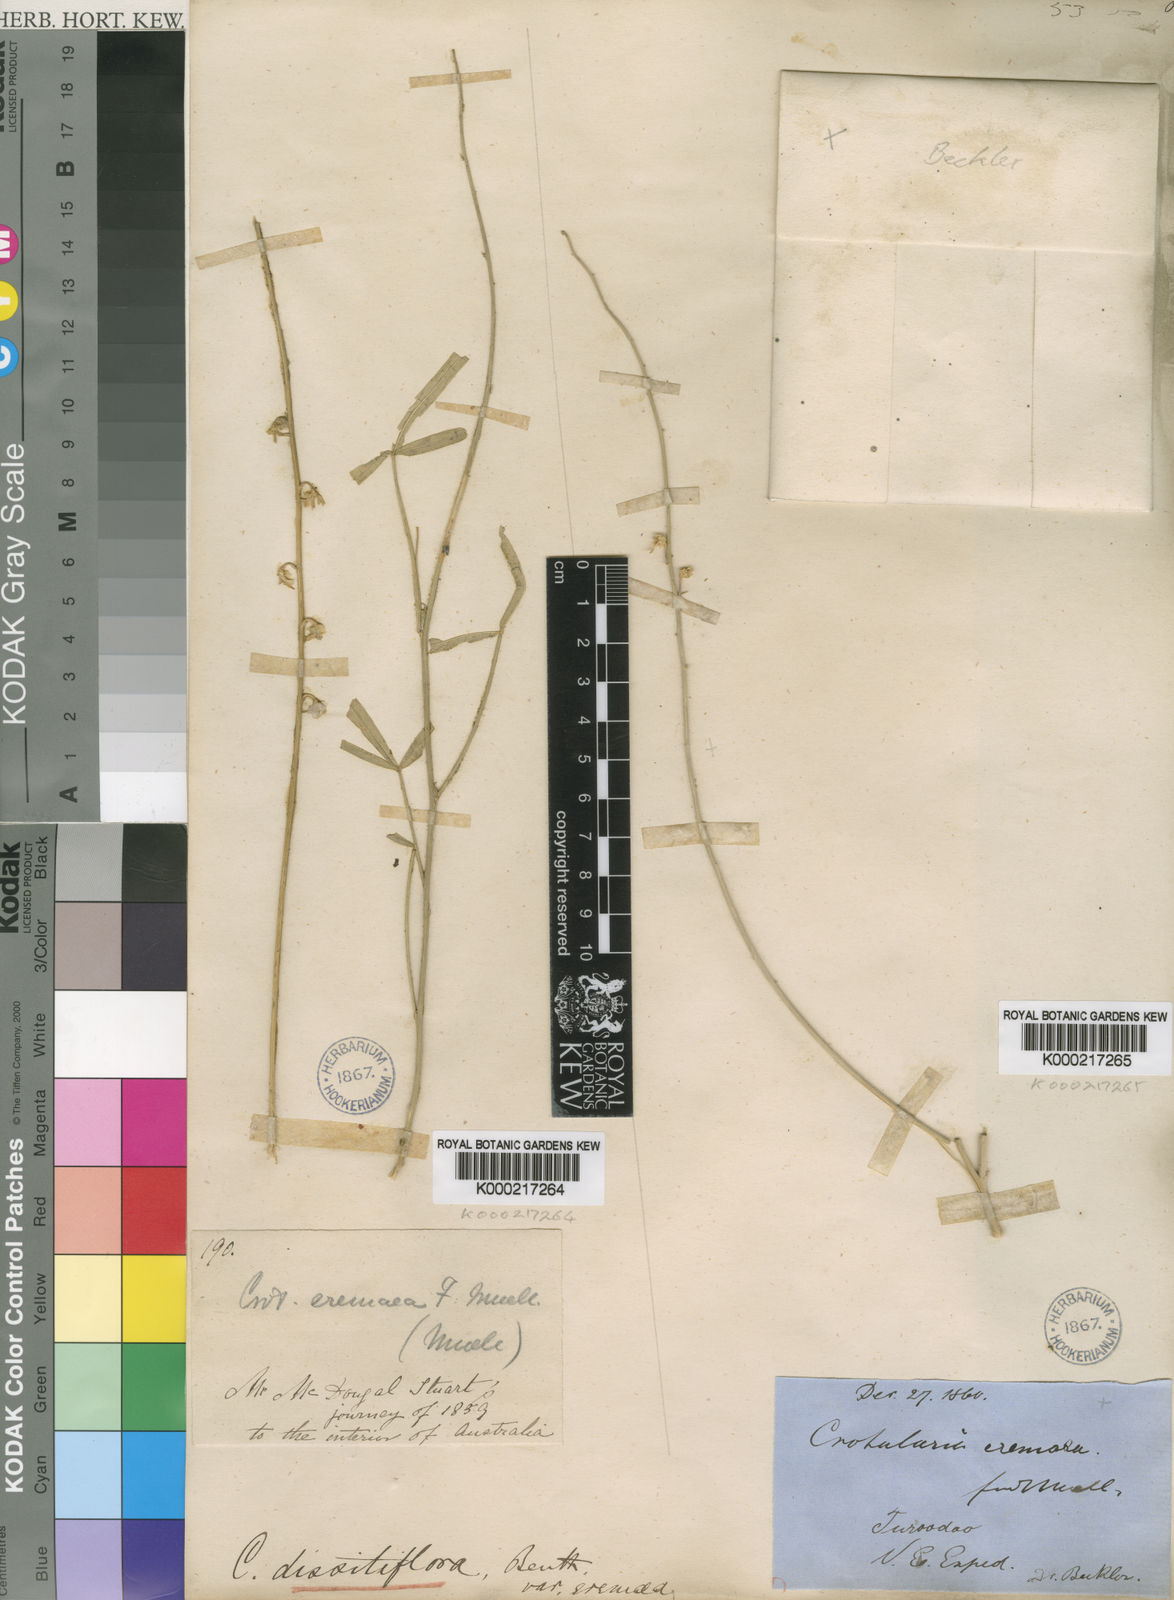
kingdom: Plantae
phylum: Tracheophyta
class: Magnoliopsida
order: Fabales
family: Fabaceae
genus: Crotalaria
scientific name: Crotalaria
